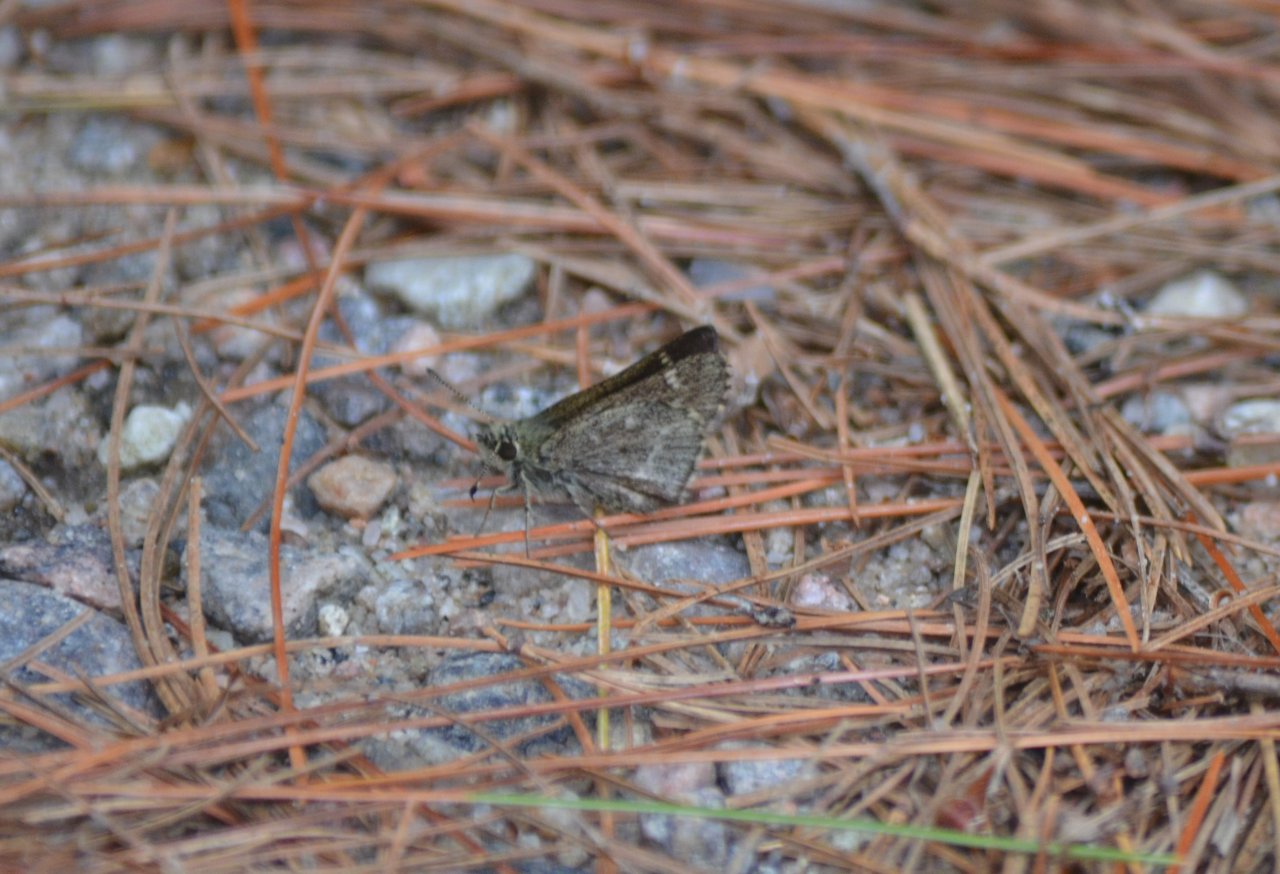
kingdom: Animalia
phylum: Arthropoda
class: Insecta
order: Lepidoptera
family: Hesperiidae
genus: Mastor
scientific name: Mastor hegon
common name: Pepper and Salt Skipper
